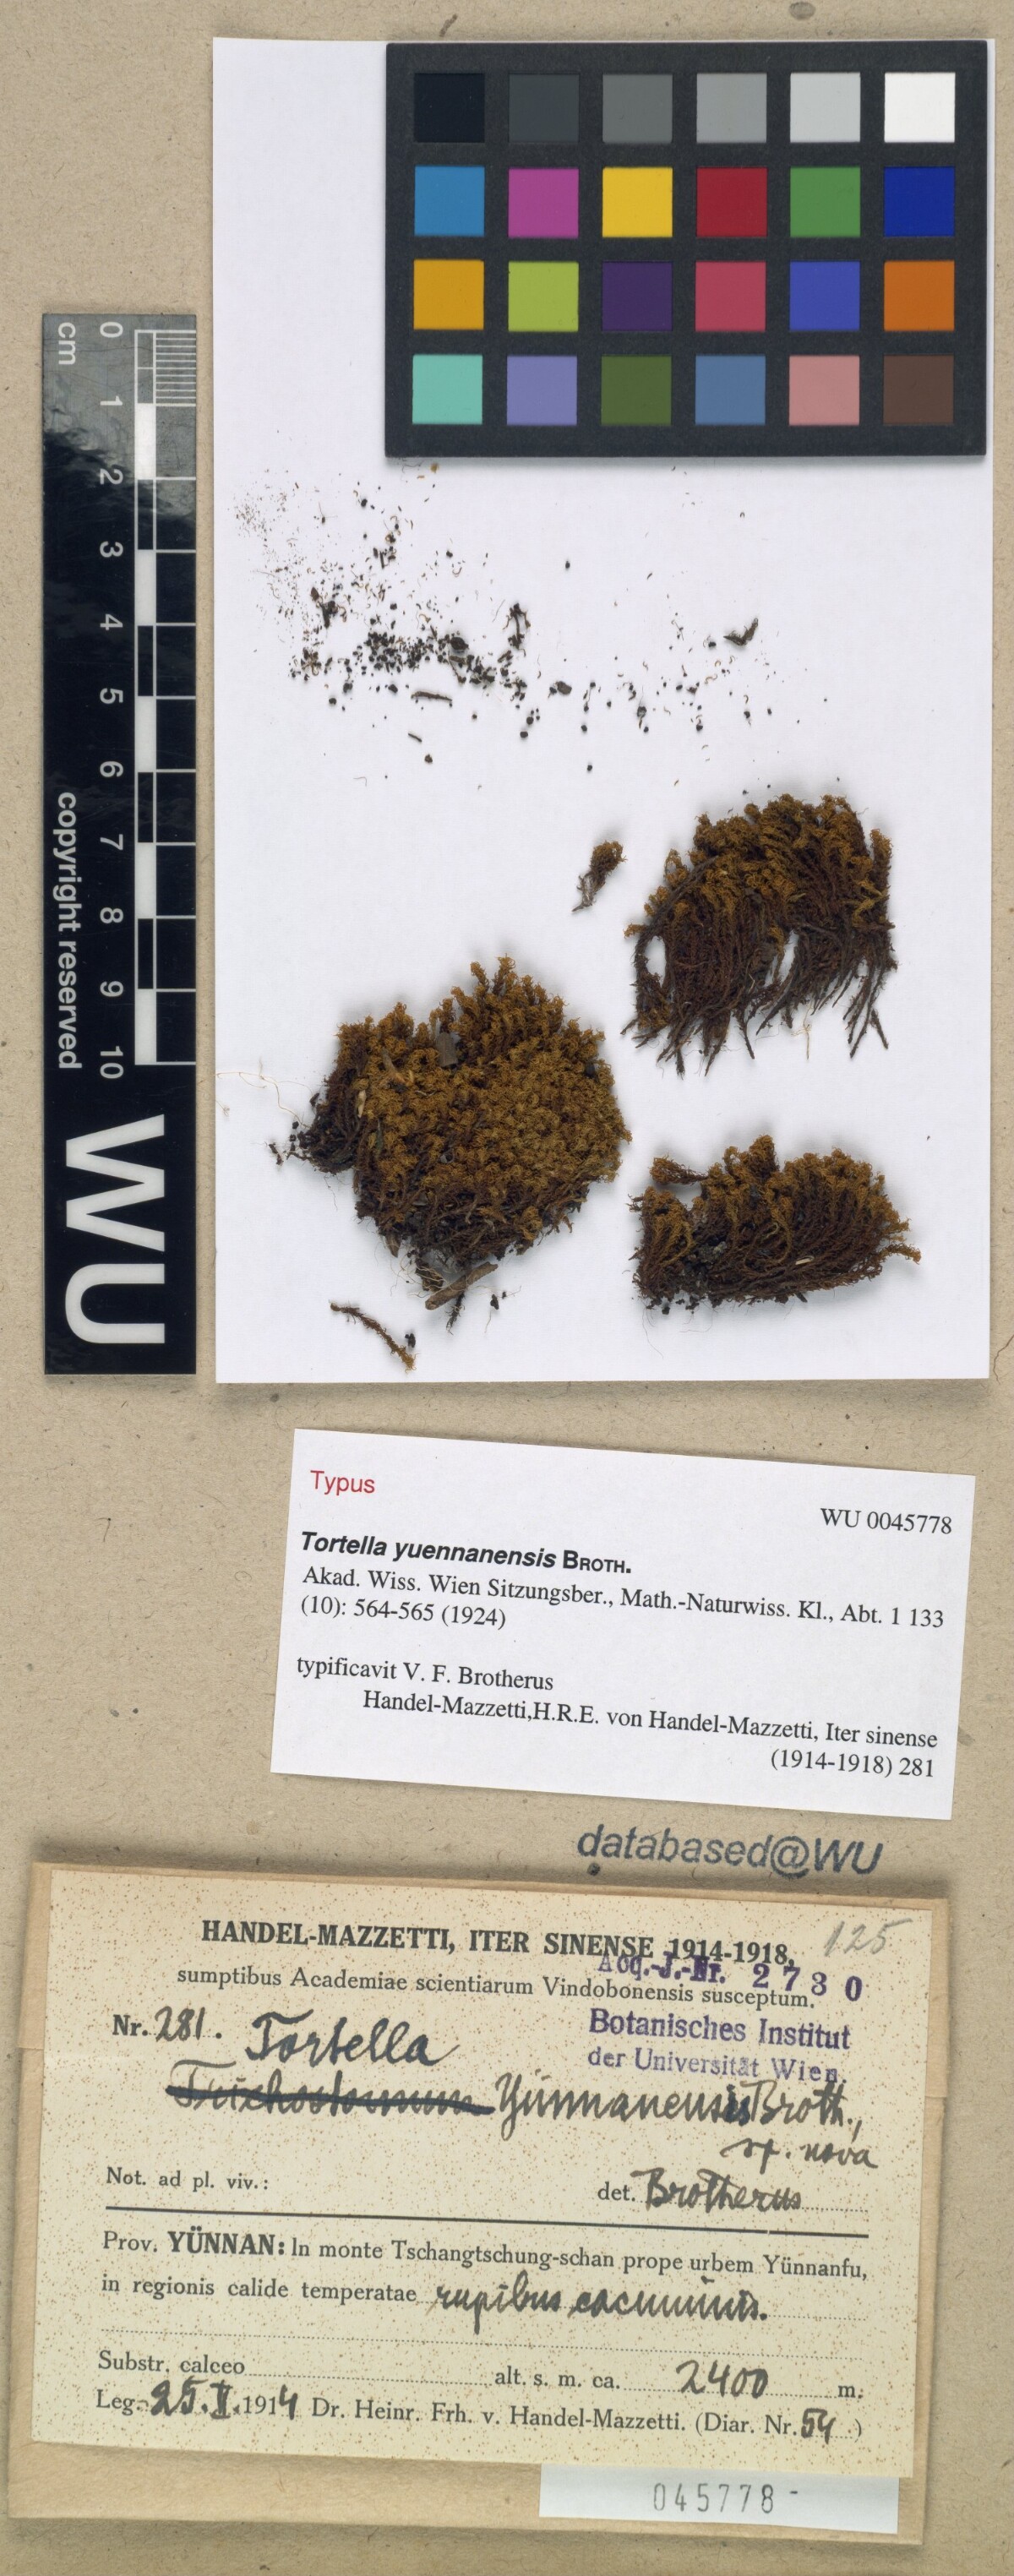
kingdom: Plantae
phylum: Bryophyta
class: Bryopsida
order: Pottiales
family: Pottiaceae
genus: Chionoloma
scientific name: Chionoloma subduriusculum
